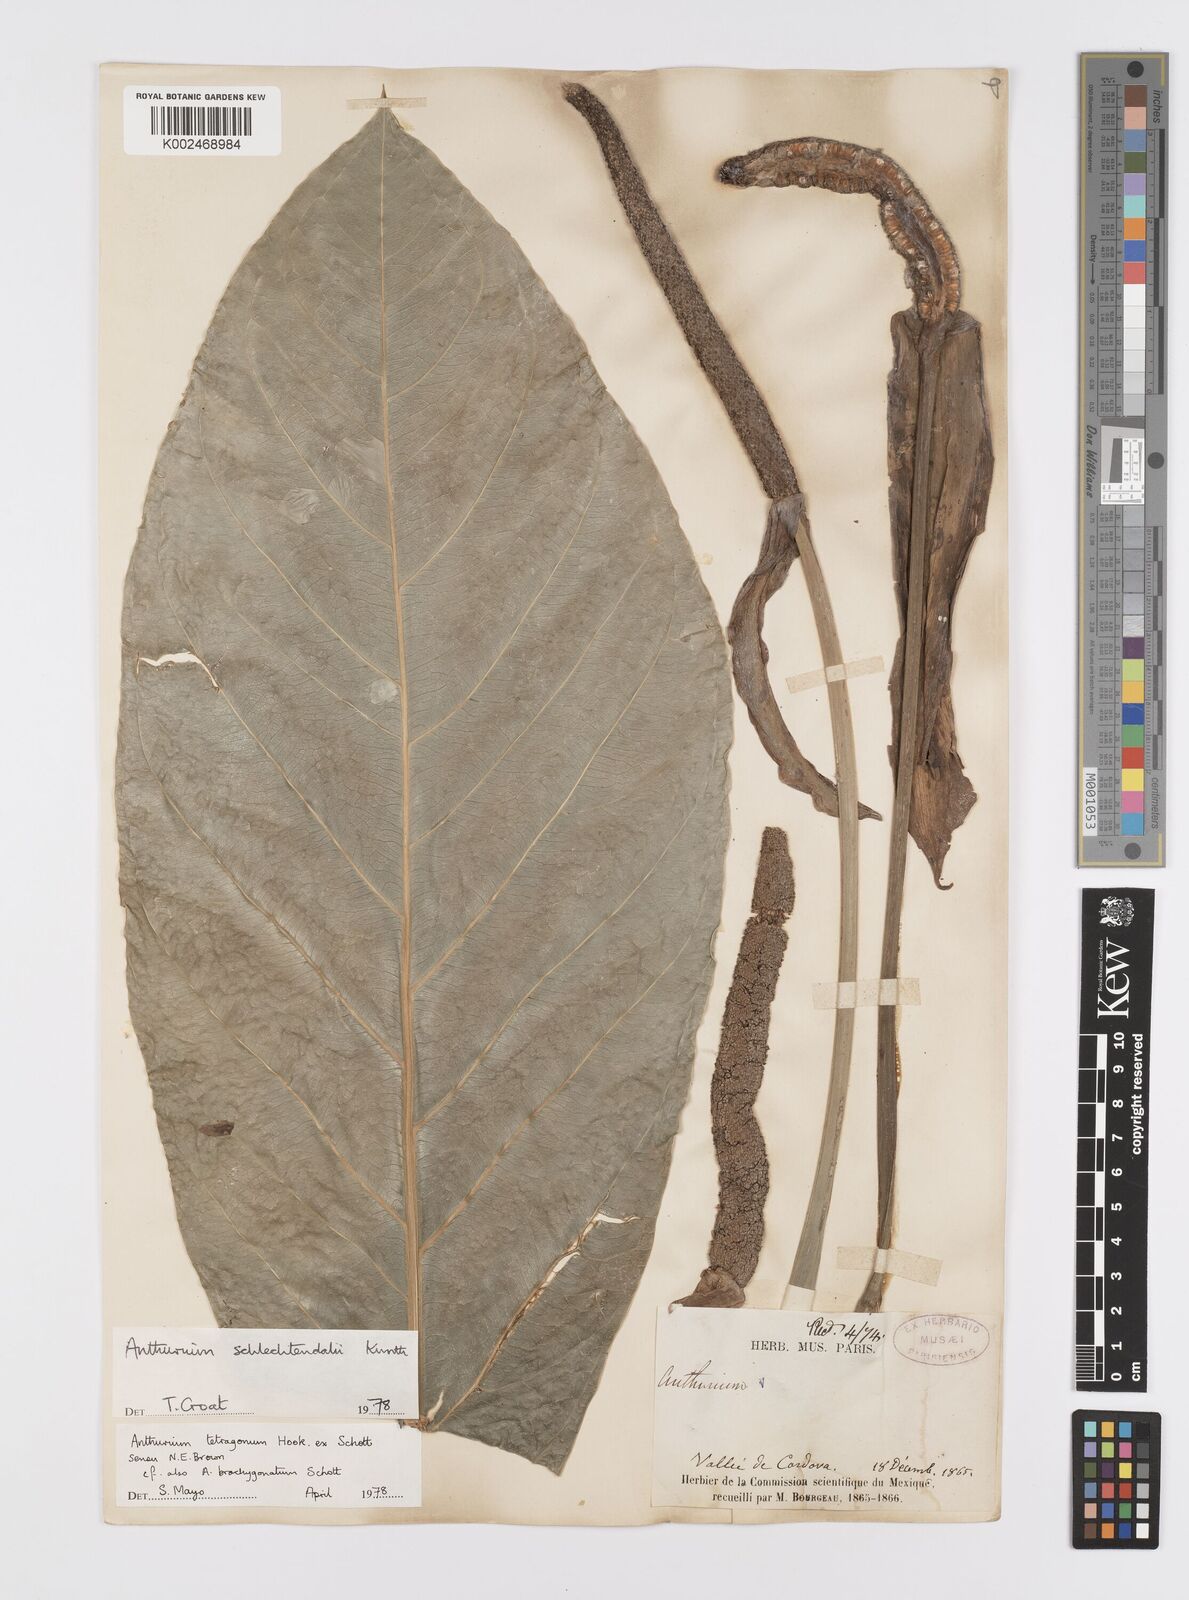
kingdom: Plantae
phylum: Tracheophyta
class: Liliopsida
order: Alismatales
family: Araceae
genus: Anthurium
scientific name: Anthurium schlechtendalii
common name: Laceleaf
